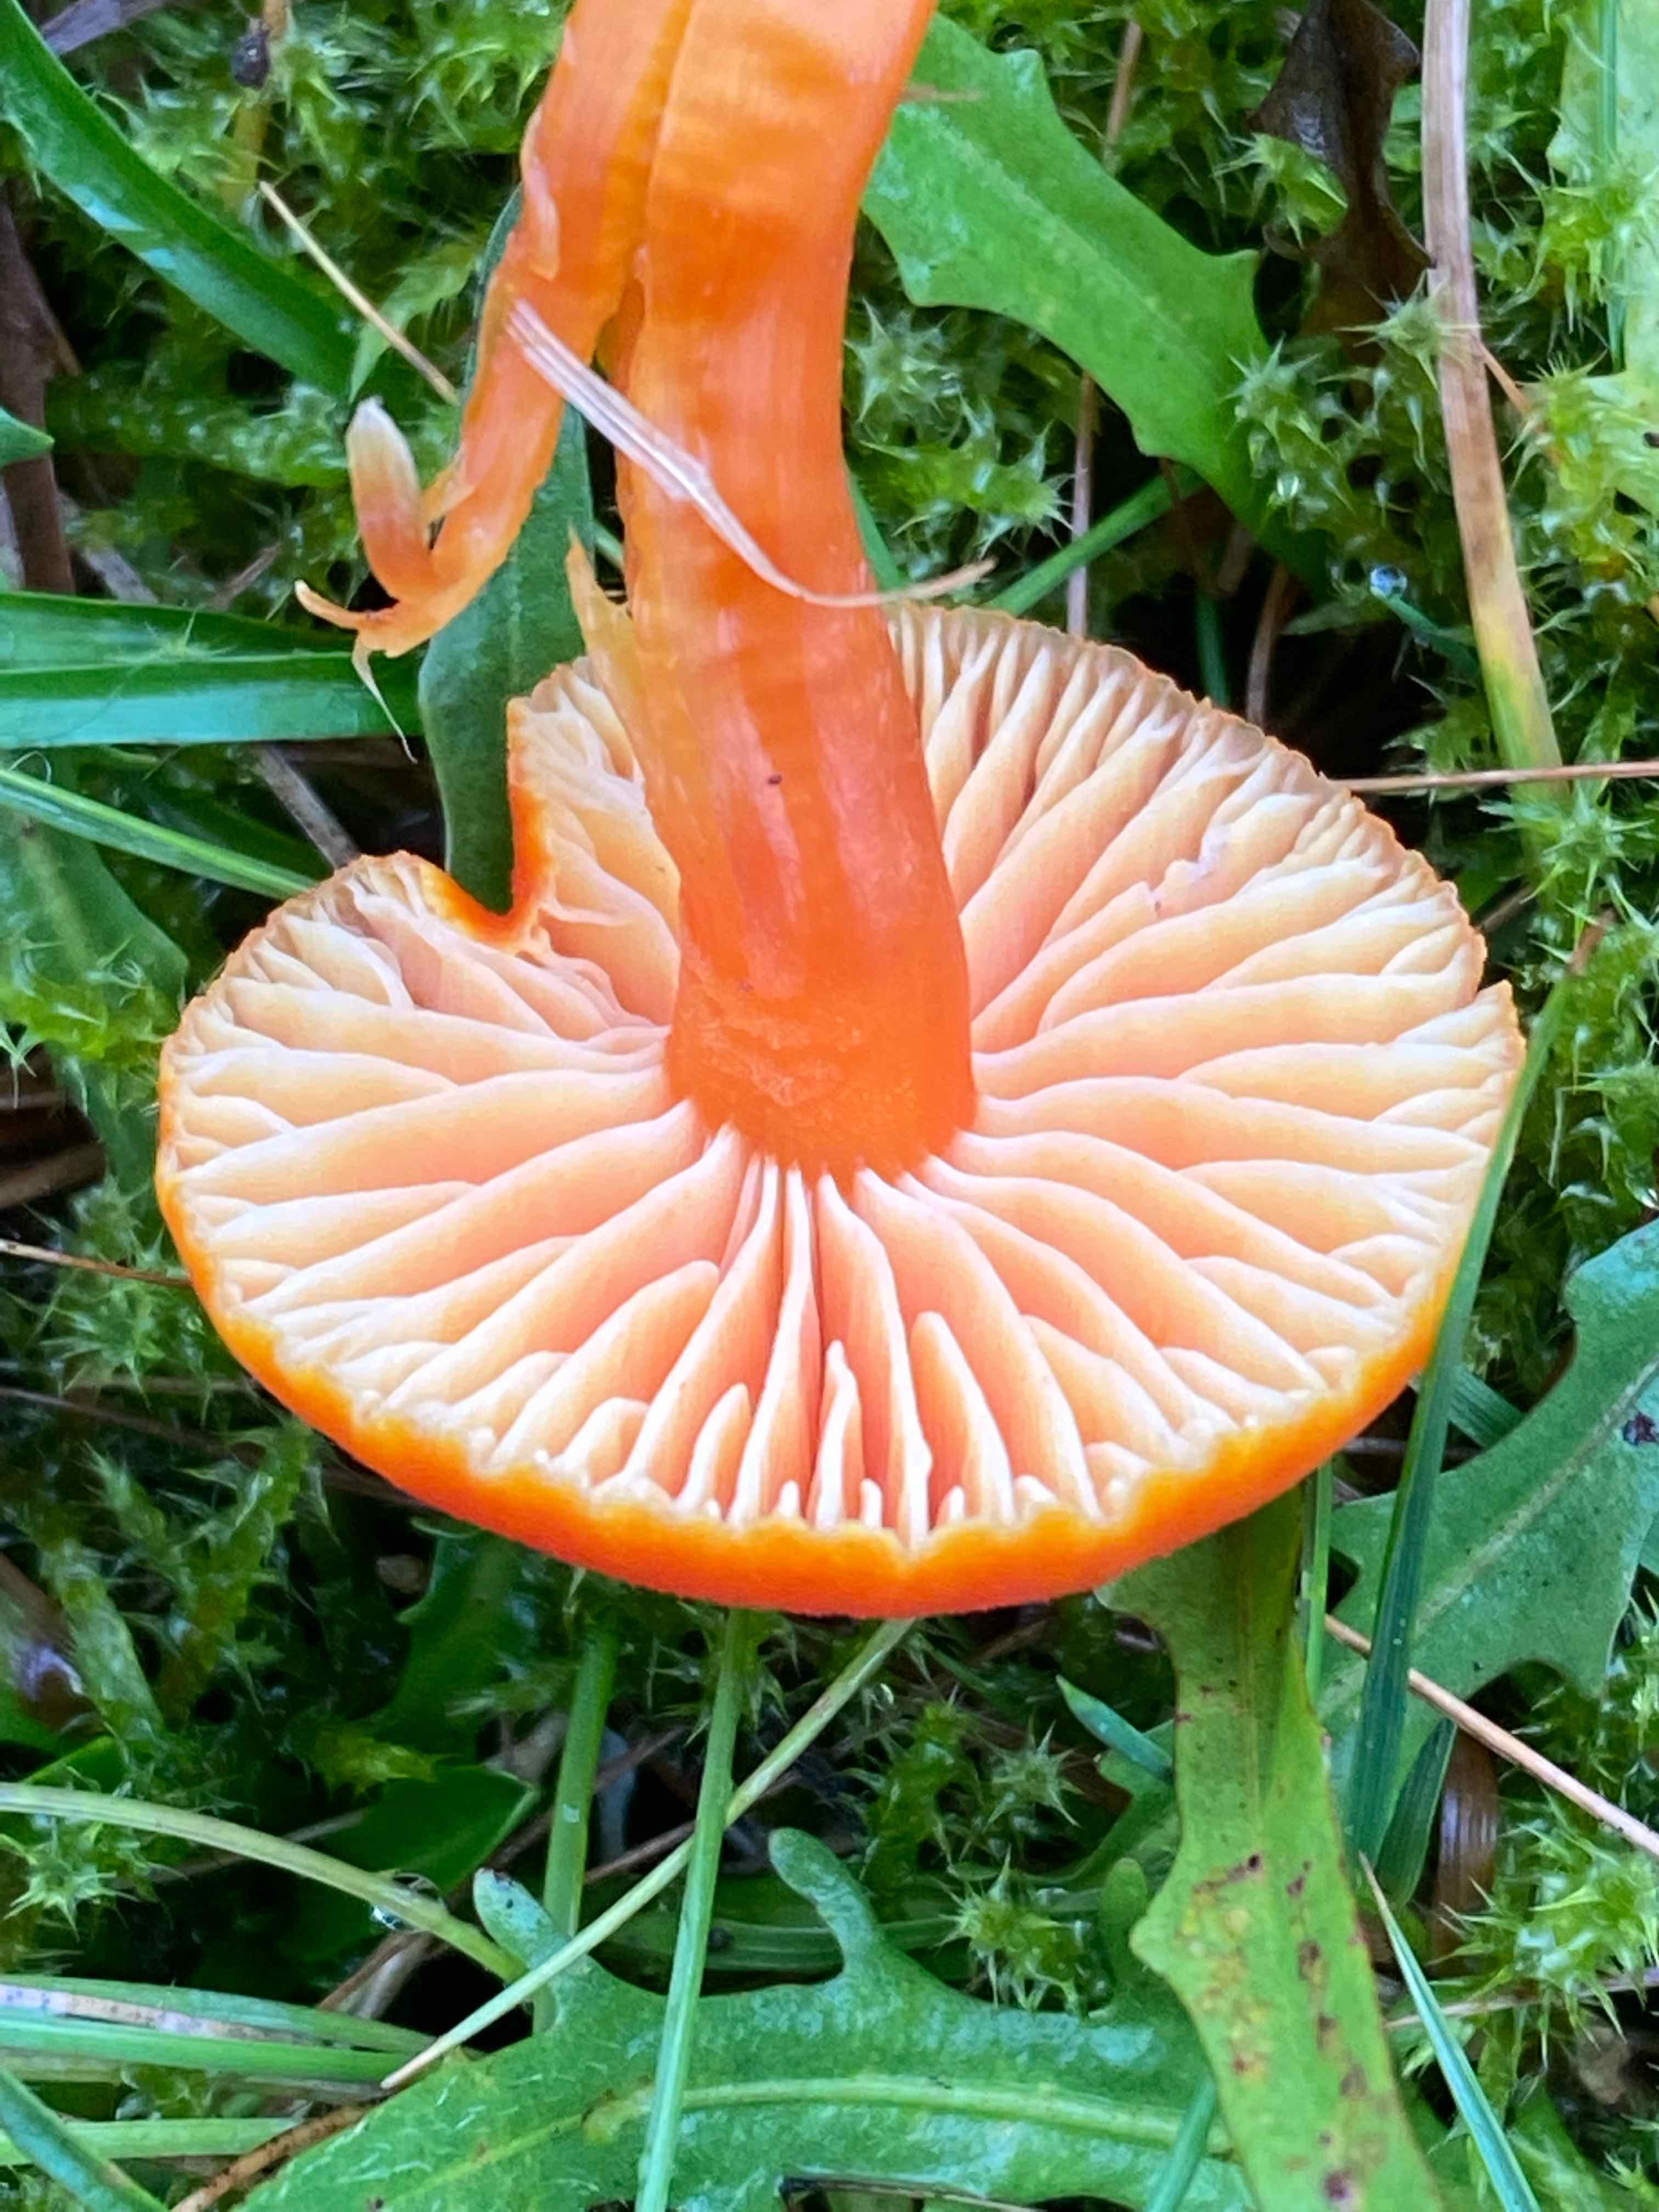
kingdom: Fungi
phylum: Basidiomycota
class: Agaricomycetes
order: Agaricales
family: Hygrophoraceae
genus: Hygrocybe
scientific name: Hygrocybe miniata
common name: mønje-vokshat
